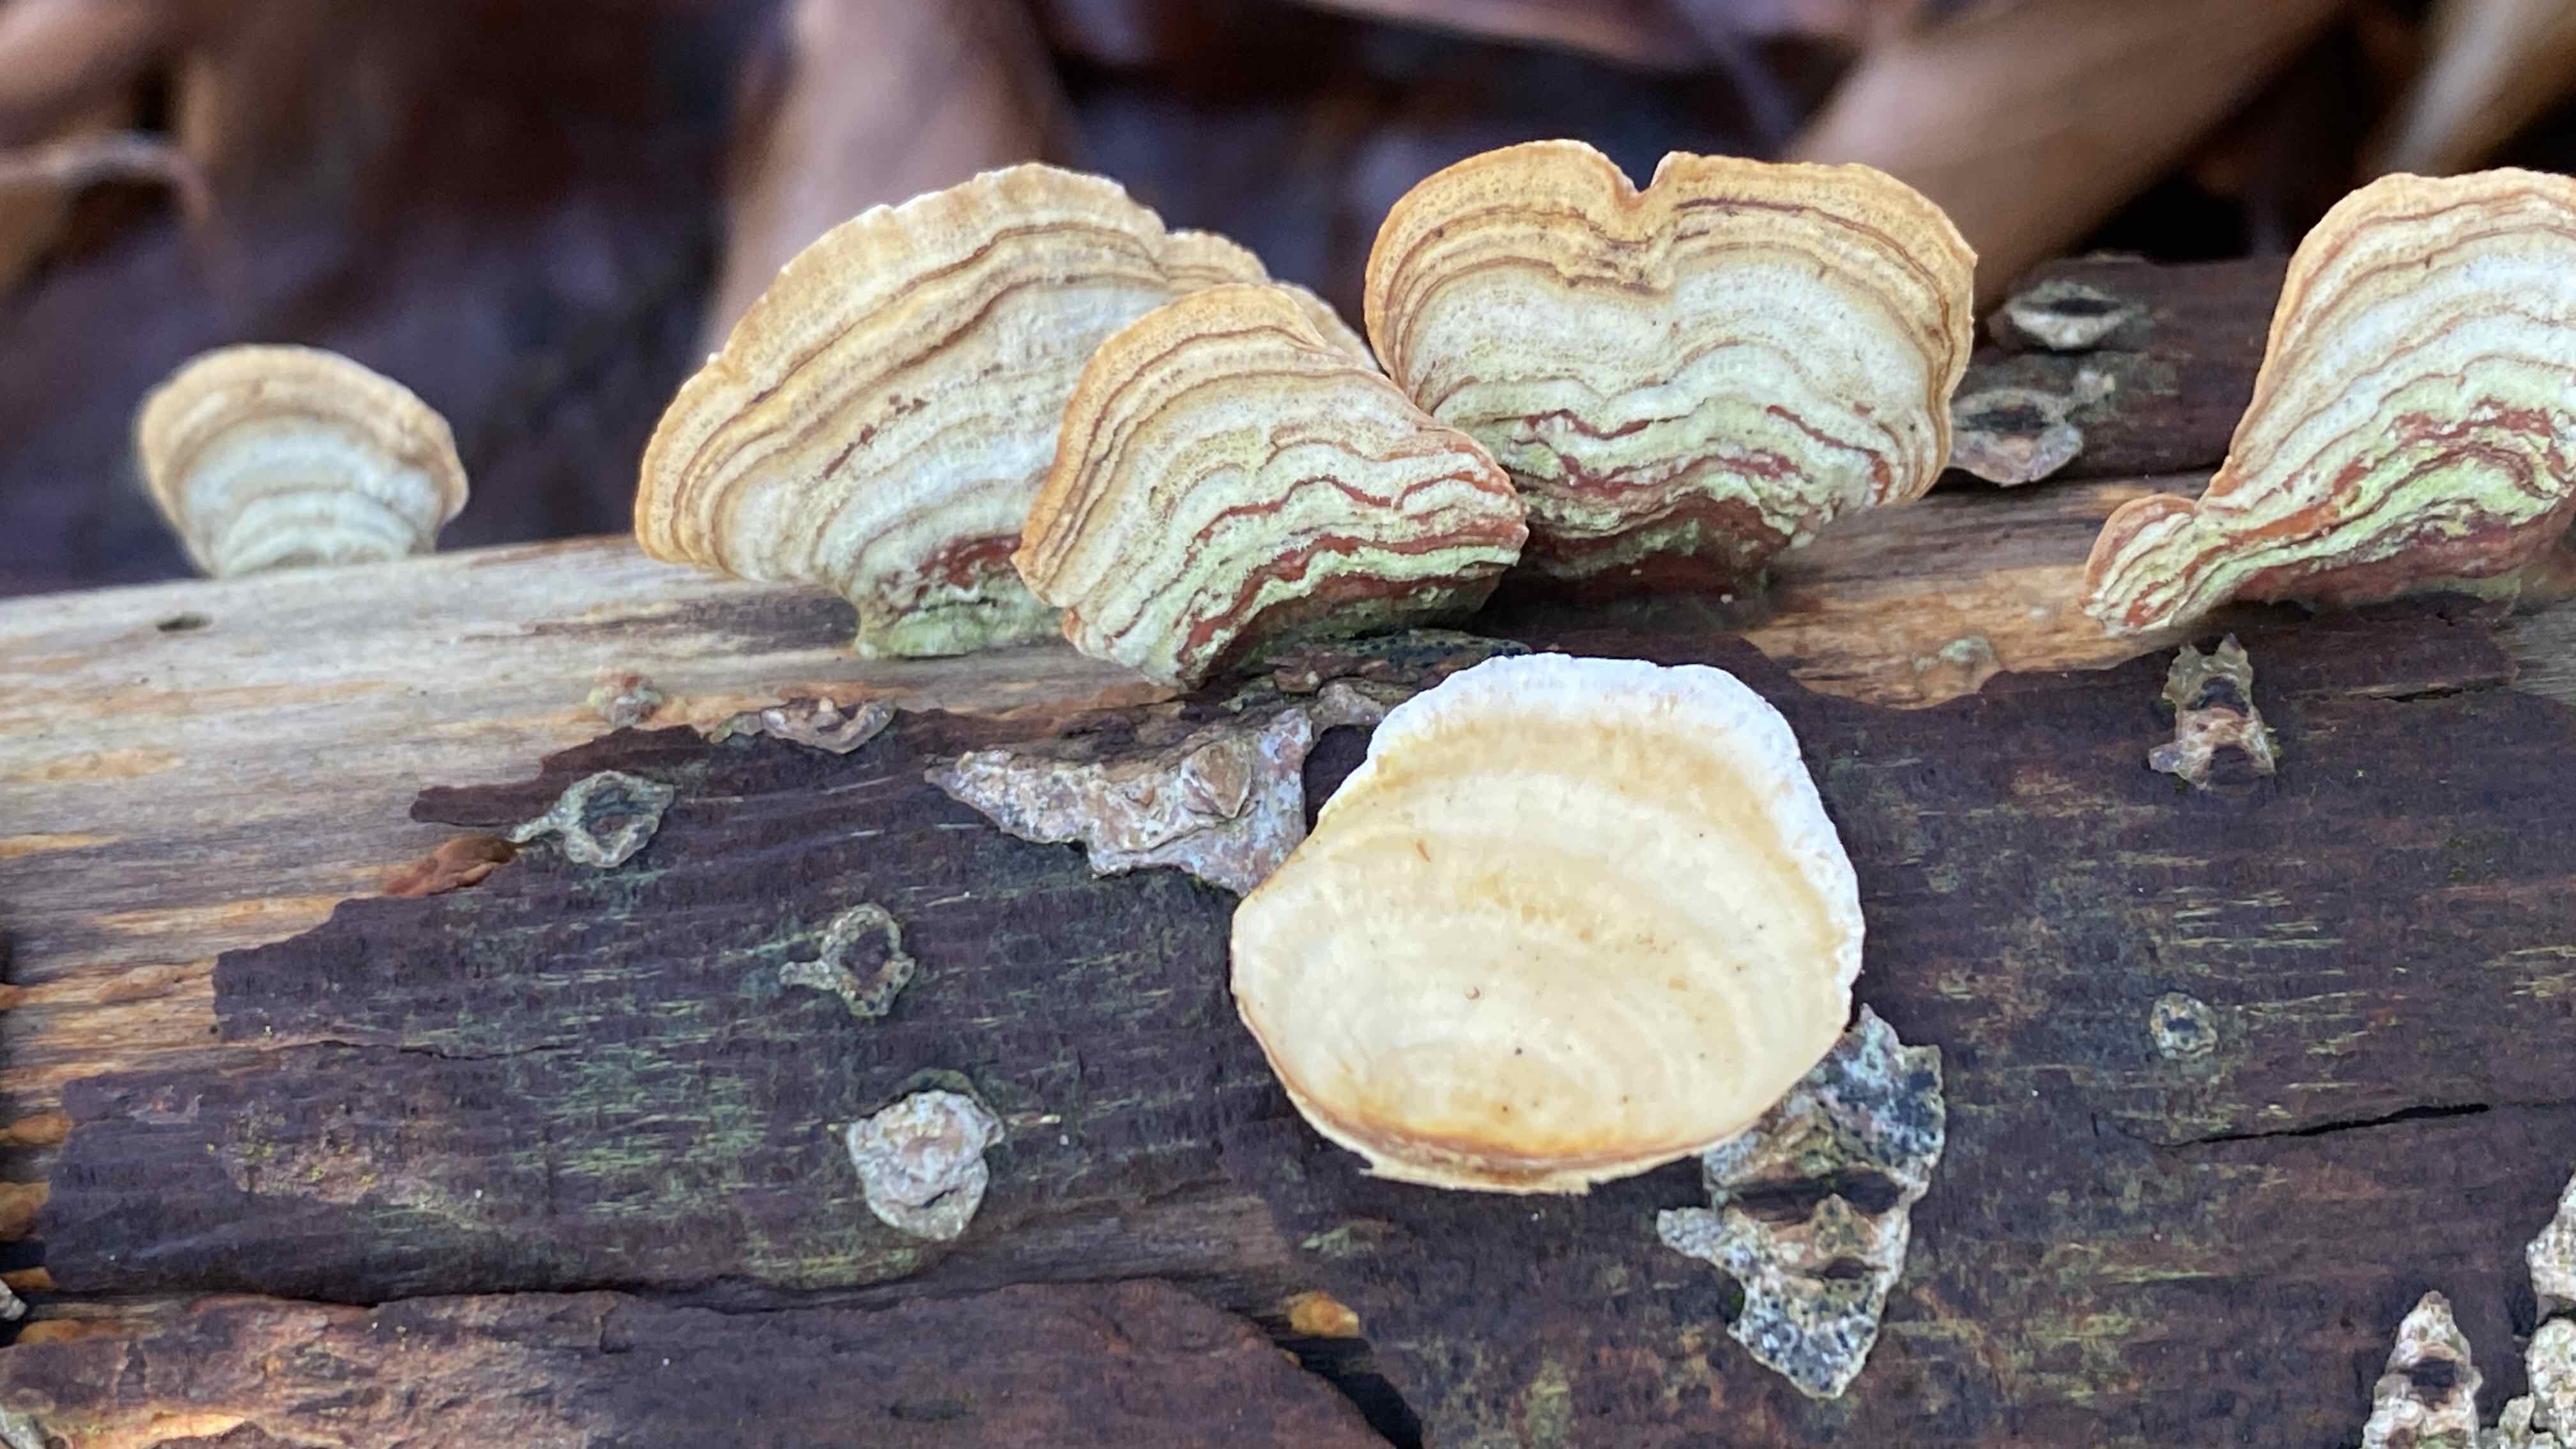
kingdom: Fungi
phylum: Basidiomycota
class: Agaricomycetes
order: Russulales
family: Stereaceae
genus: Stereum
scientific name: Stereum subtomentosum
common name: smuk lædersvamp
